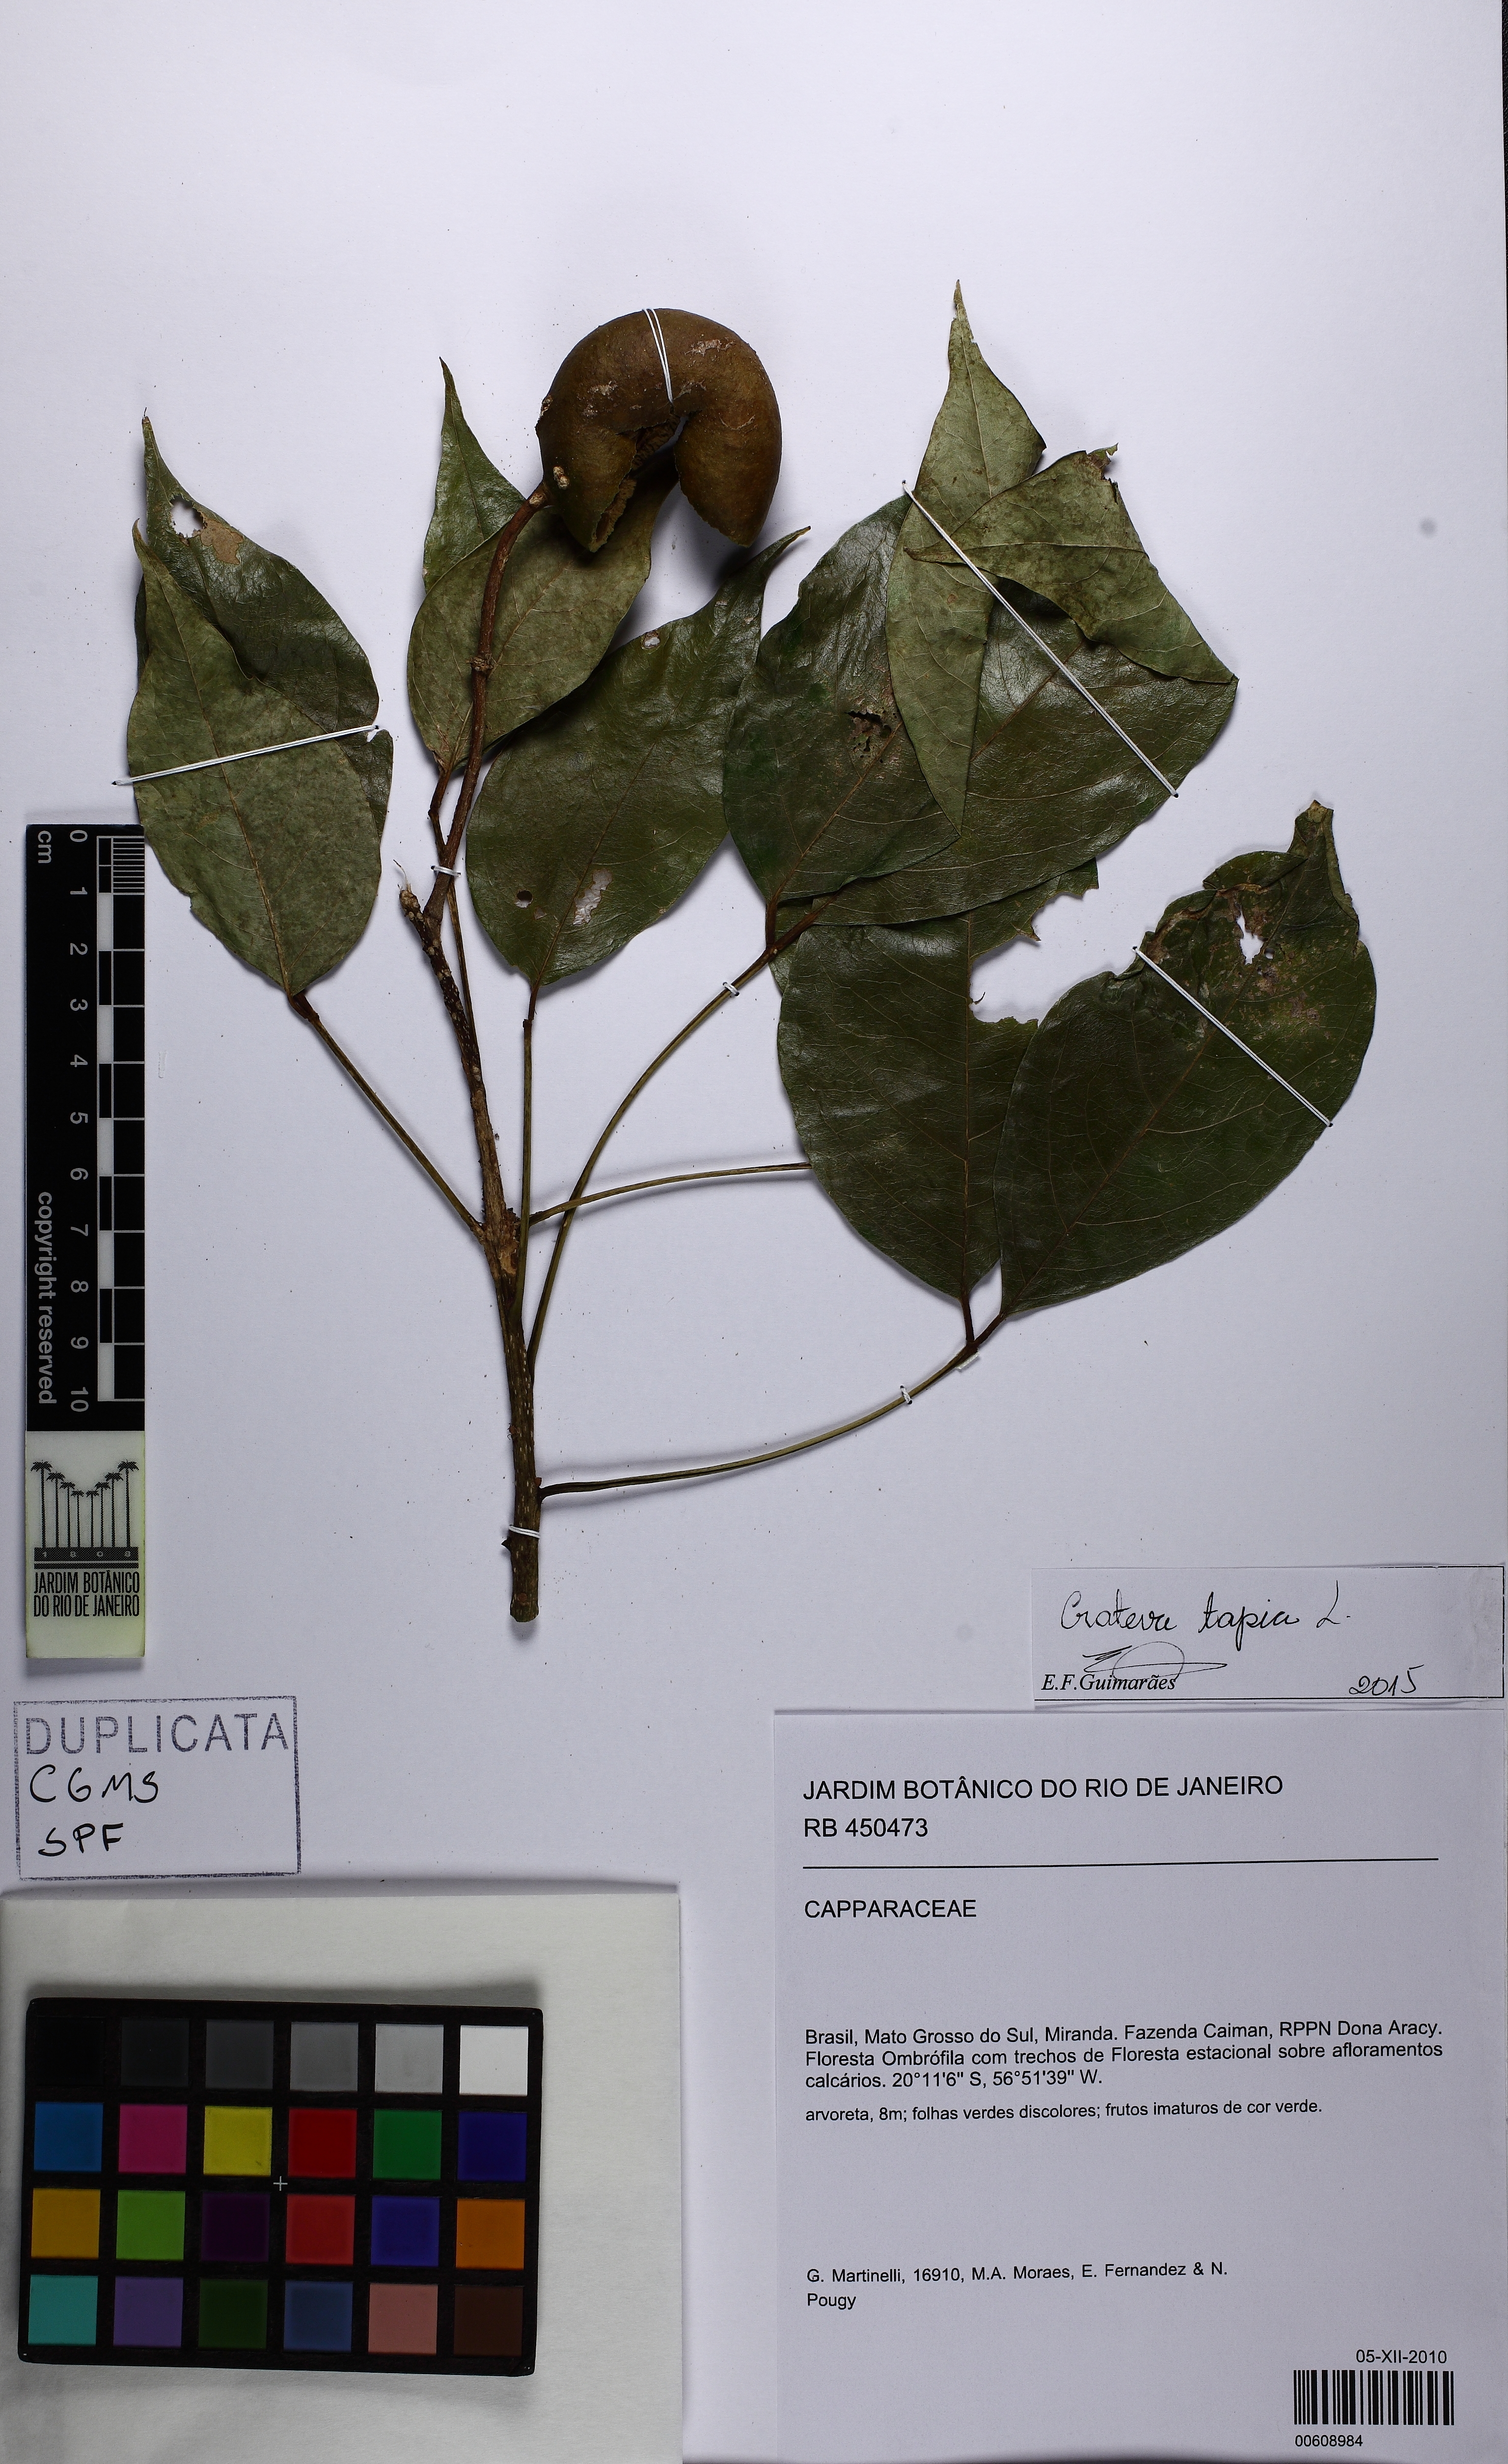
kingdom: Plantae
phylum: Tracheophyta
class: Magnoliopsida
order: Brassicales
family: Capparaceae
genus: Crateva
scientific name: Crateva tapia
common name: Garlic-pear
